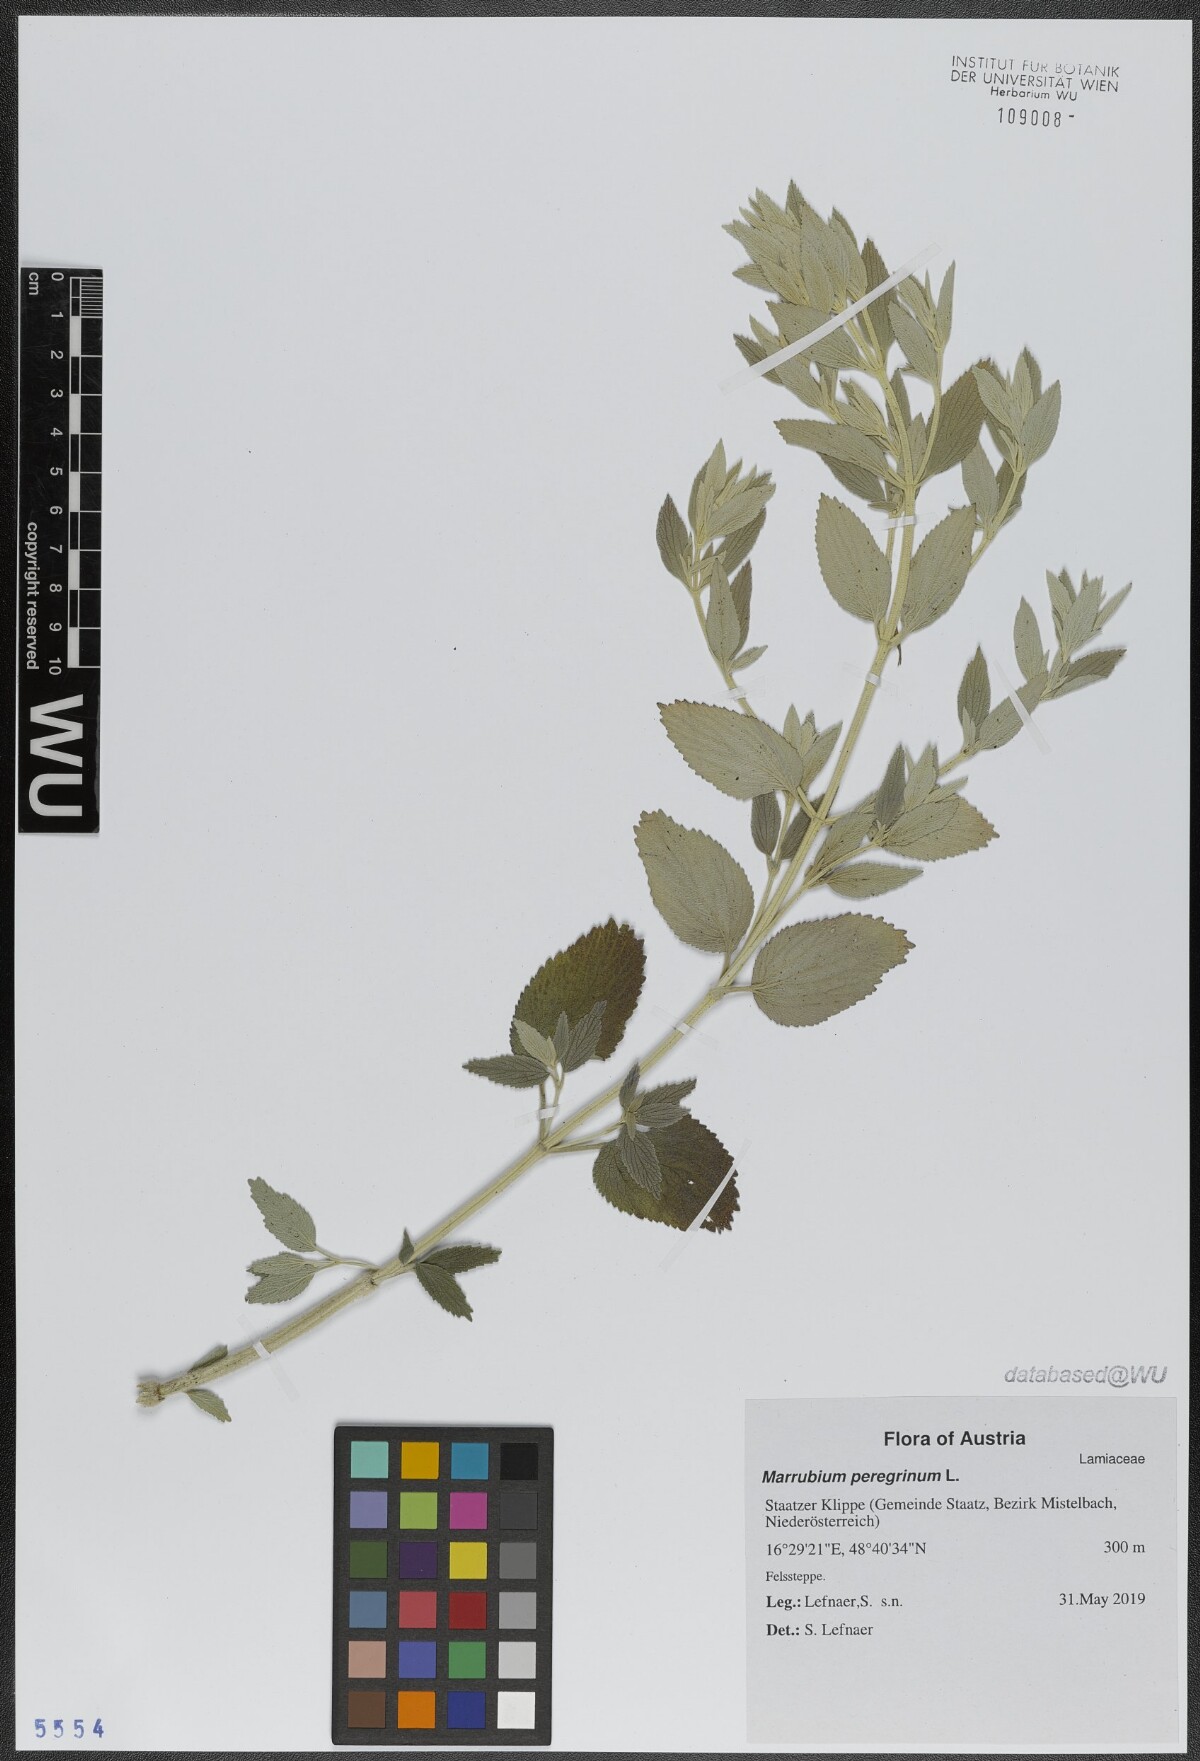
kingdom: Plantae
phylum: Tracheophyta
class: Magnoliopsida
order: Lamiales
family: Lamiaceae
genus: Marrubium
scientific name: Marrubium peregrinum
